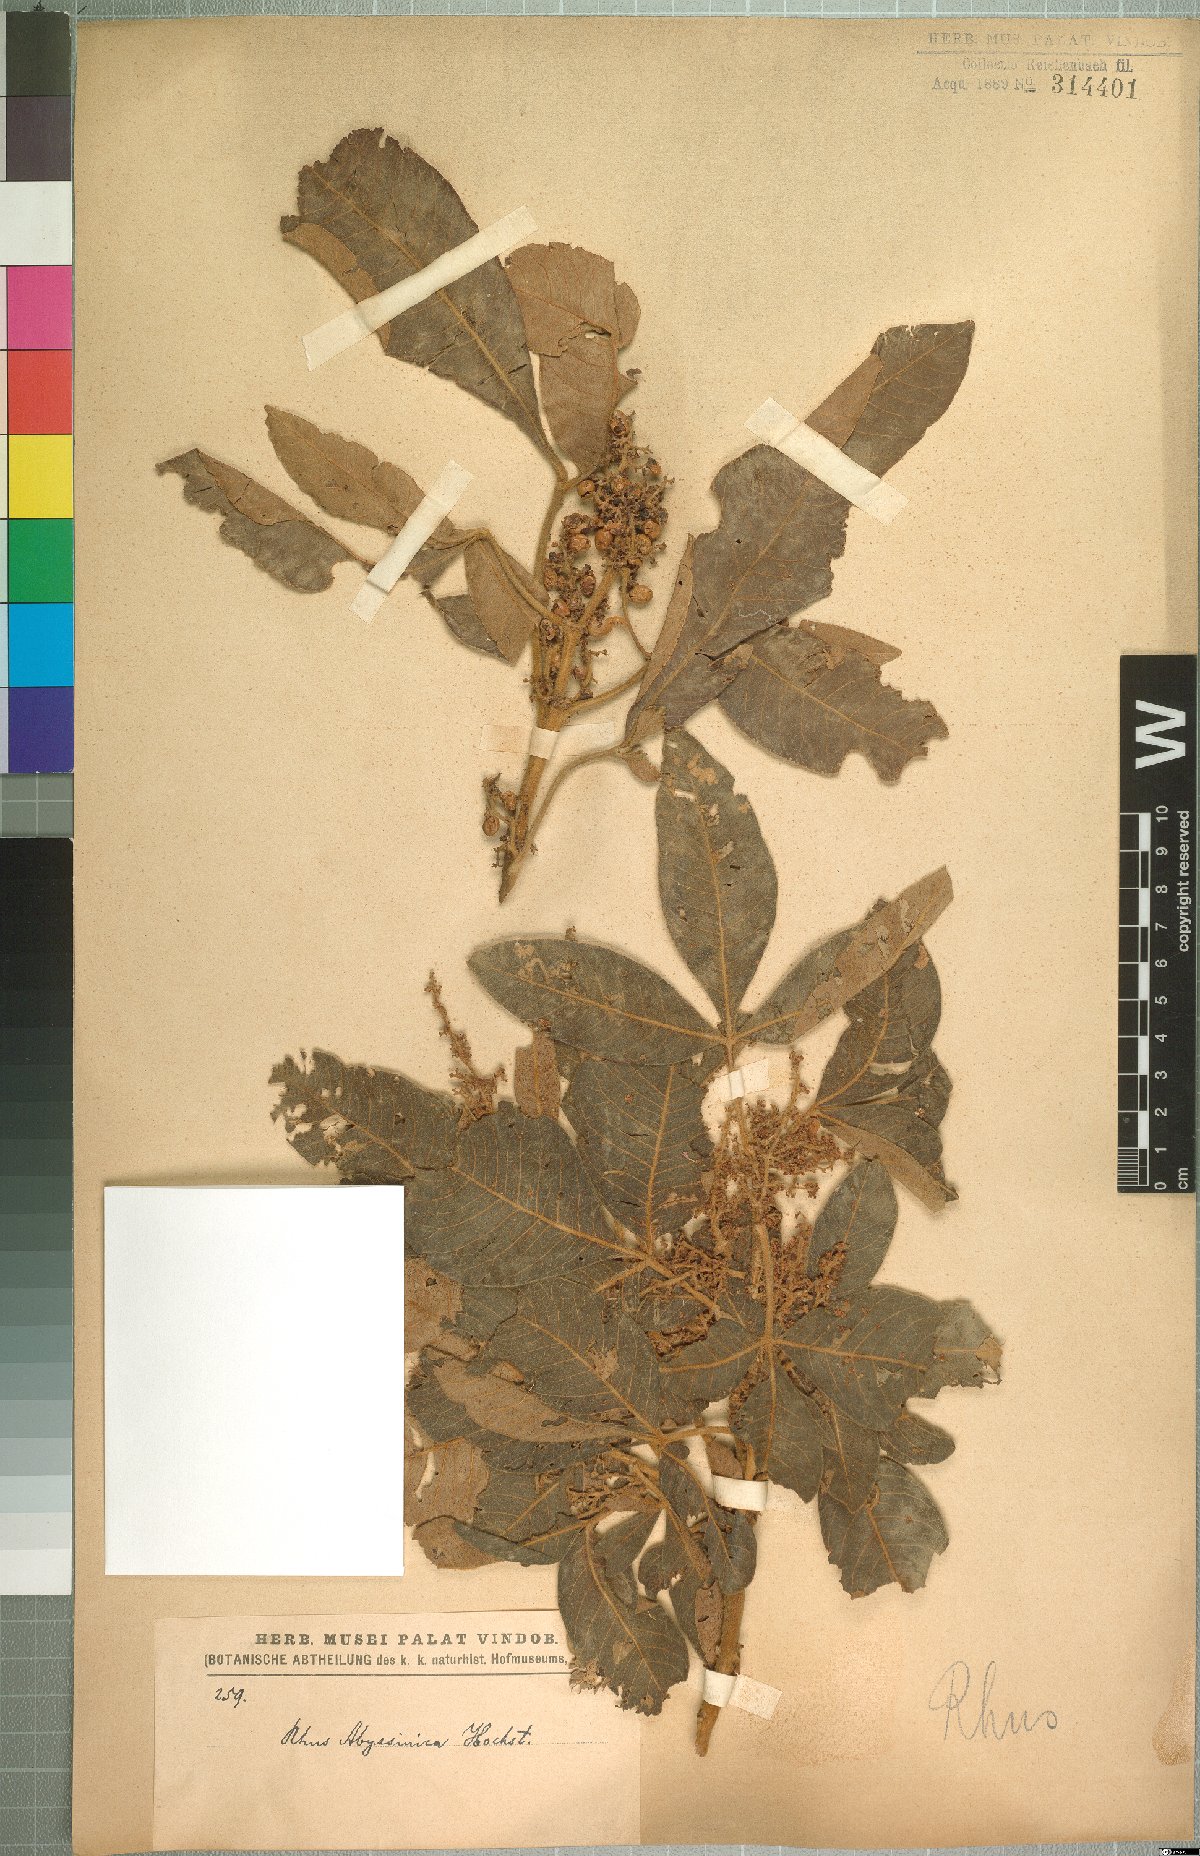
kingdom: Plantae
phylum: Tracheophyta
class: Magnoliopsida
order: Sapindales
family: Anacardiaceae
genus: Searsia
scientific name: Searsia glutinosa
